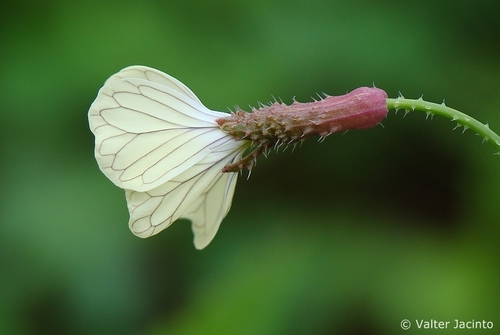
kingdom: Plantae
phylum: Tracheophyta
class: Magnoliopsida
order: Brassicales
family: Brassicaceae
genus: Raphanus
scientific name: Raphanus raphanistrum
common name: Wild radish
